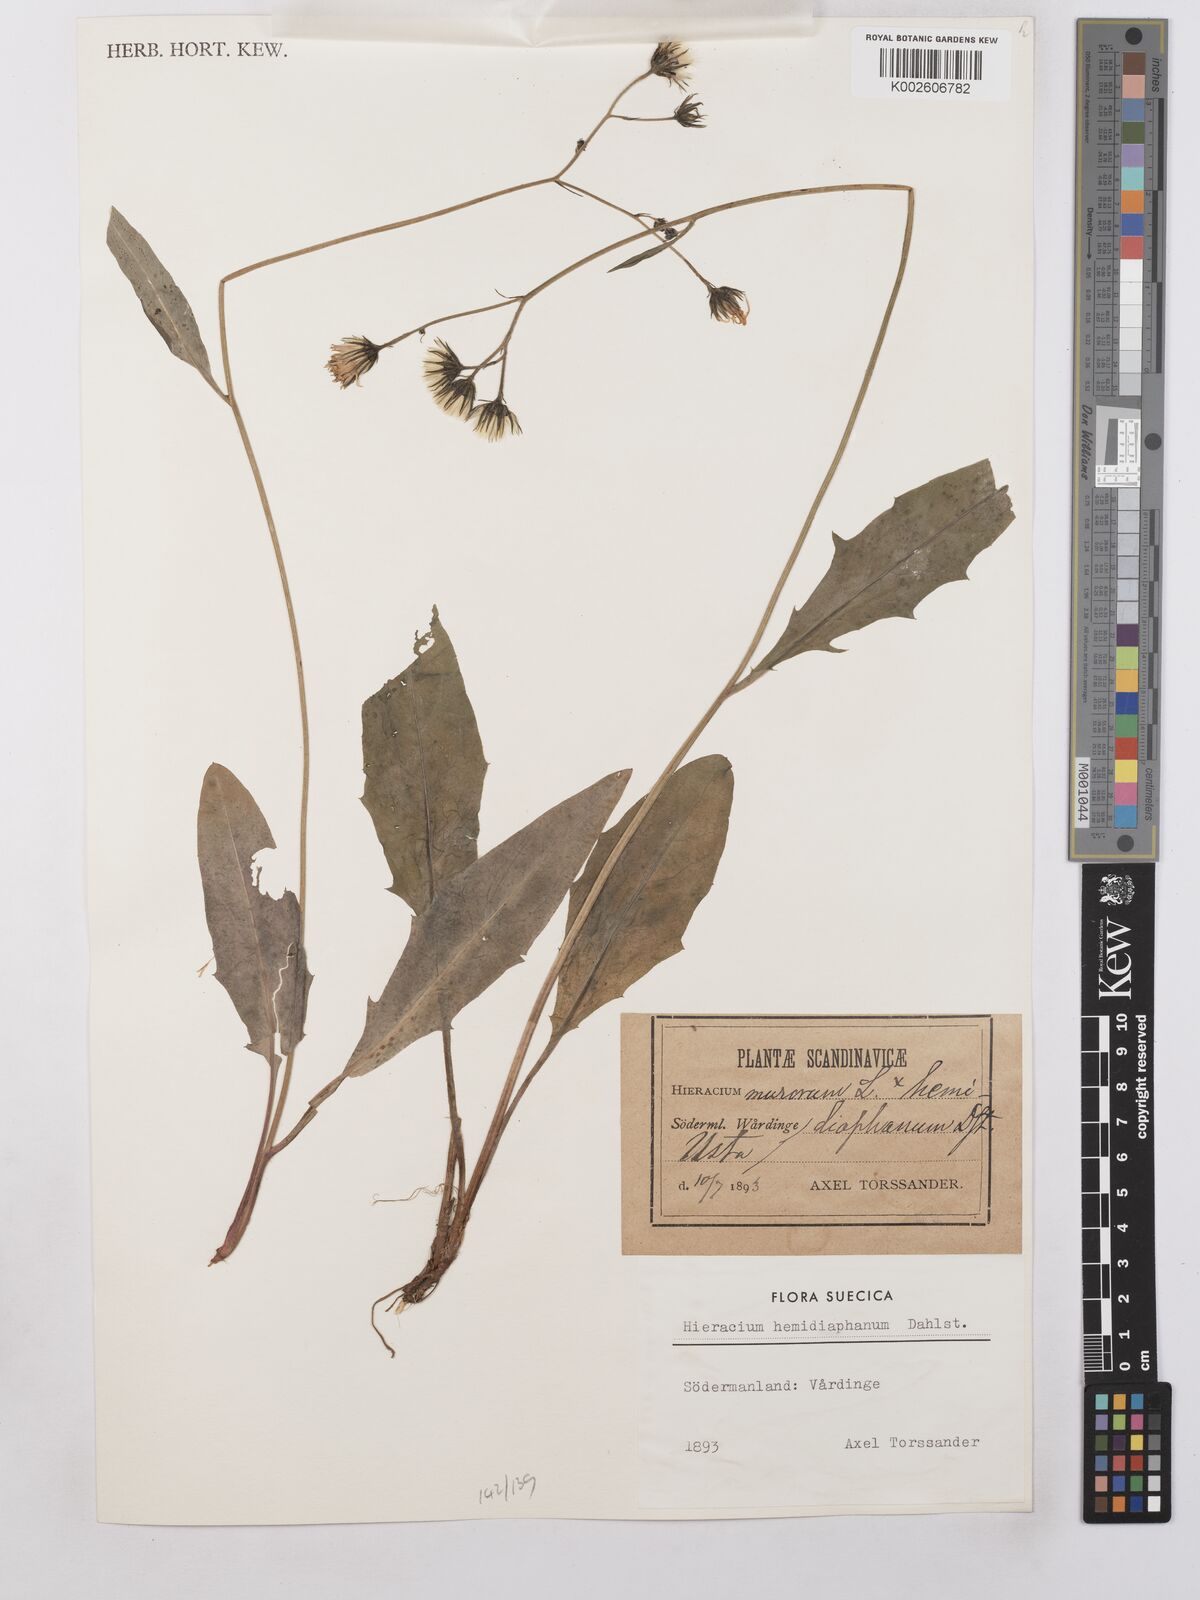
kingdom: Plantae
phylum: Tracheophyta
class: Magnoliopsida
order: Asterales
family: Asteraceae
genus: Hieracium
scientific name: Hieracium lachenalii
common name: Common hawkweed
